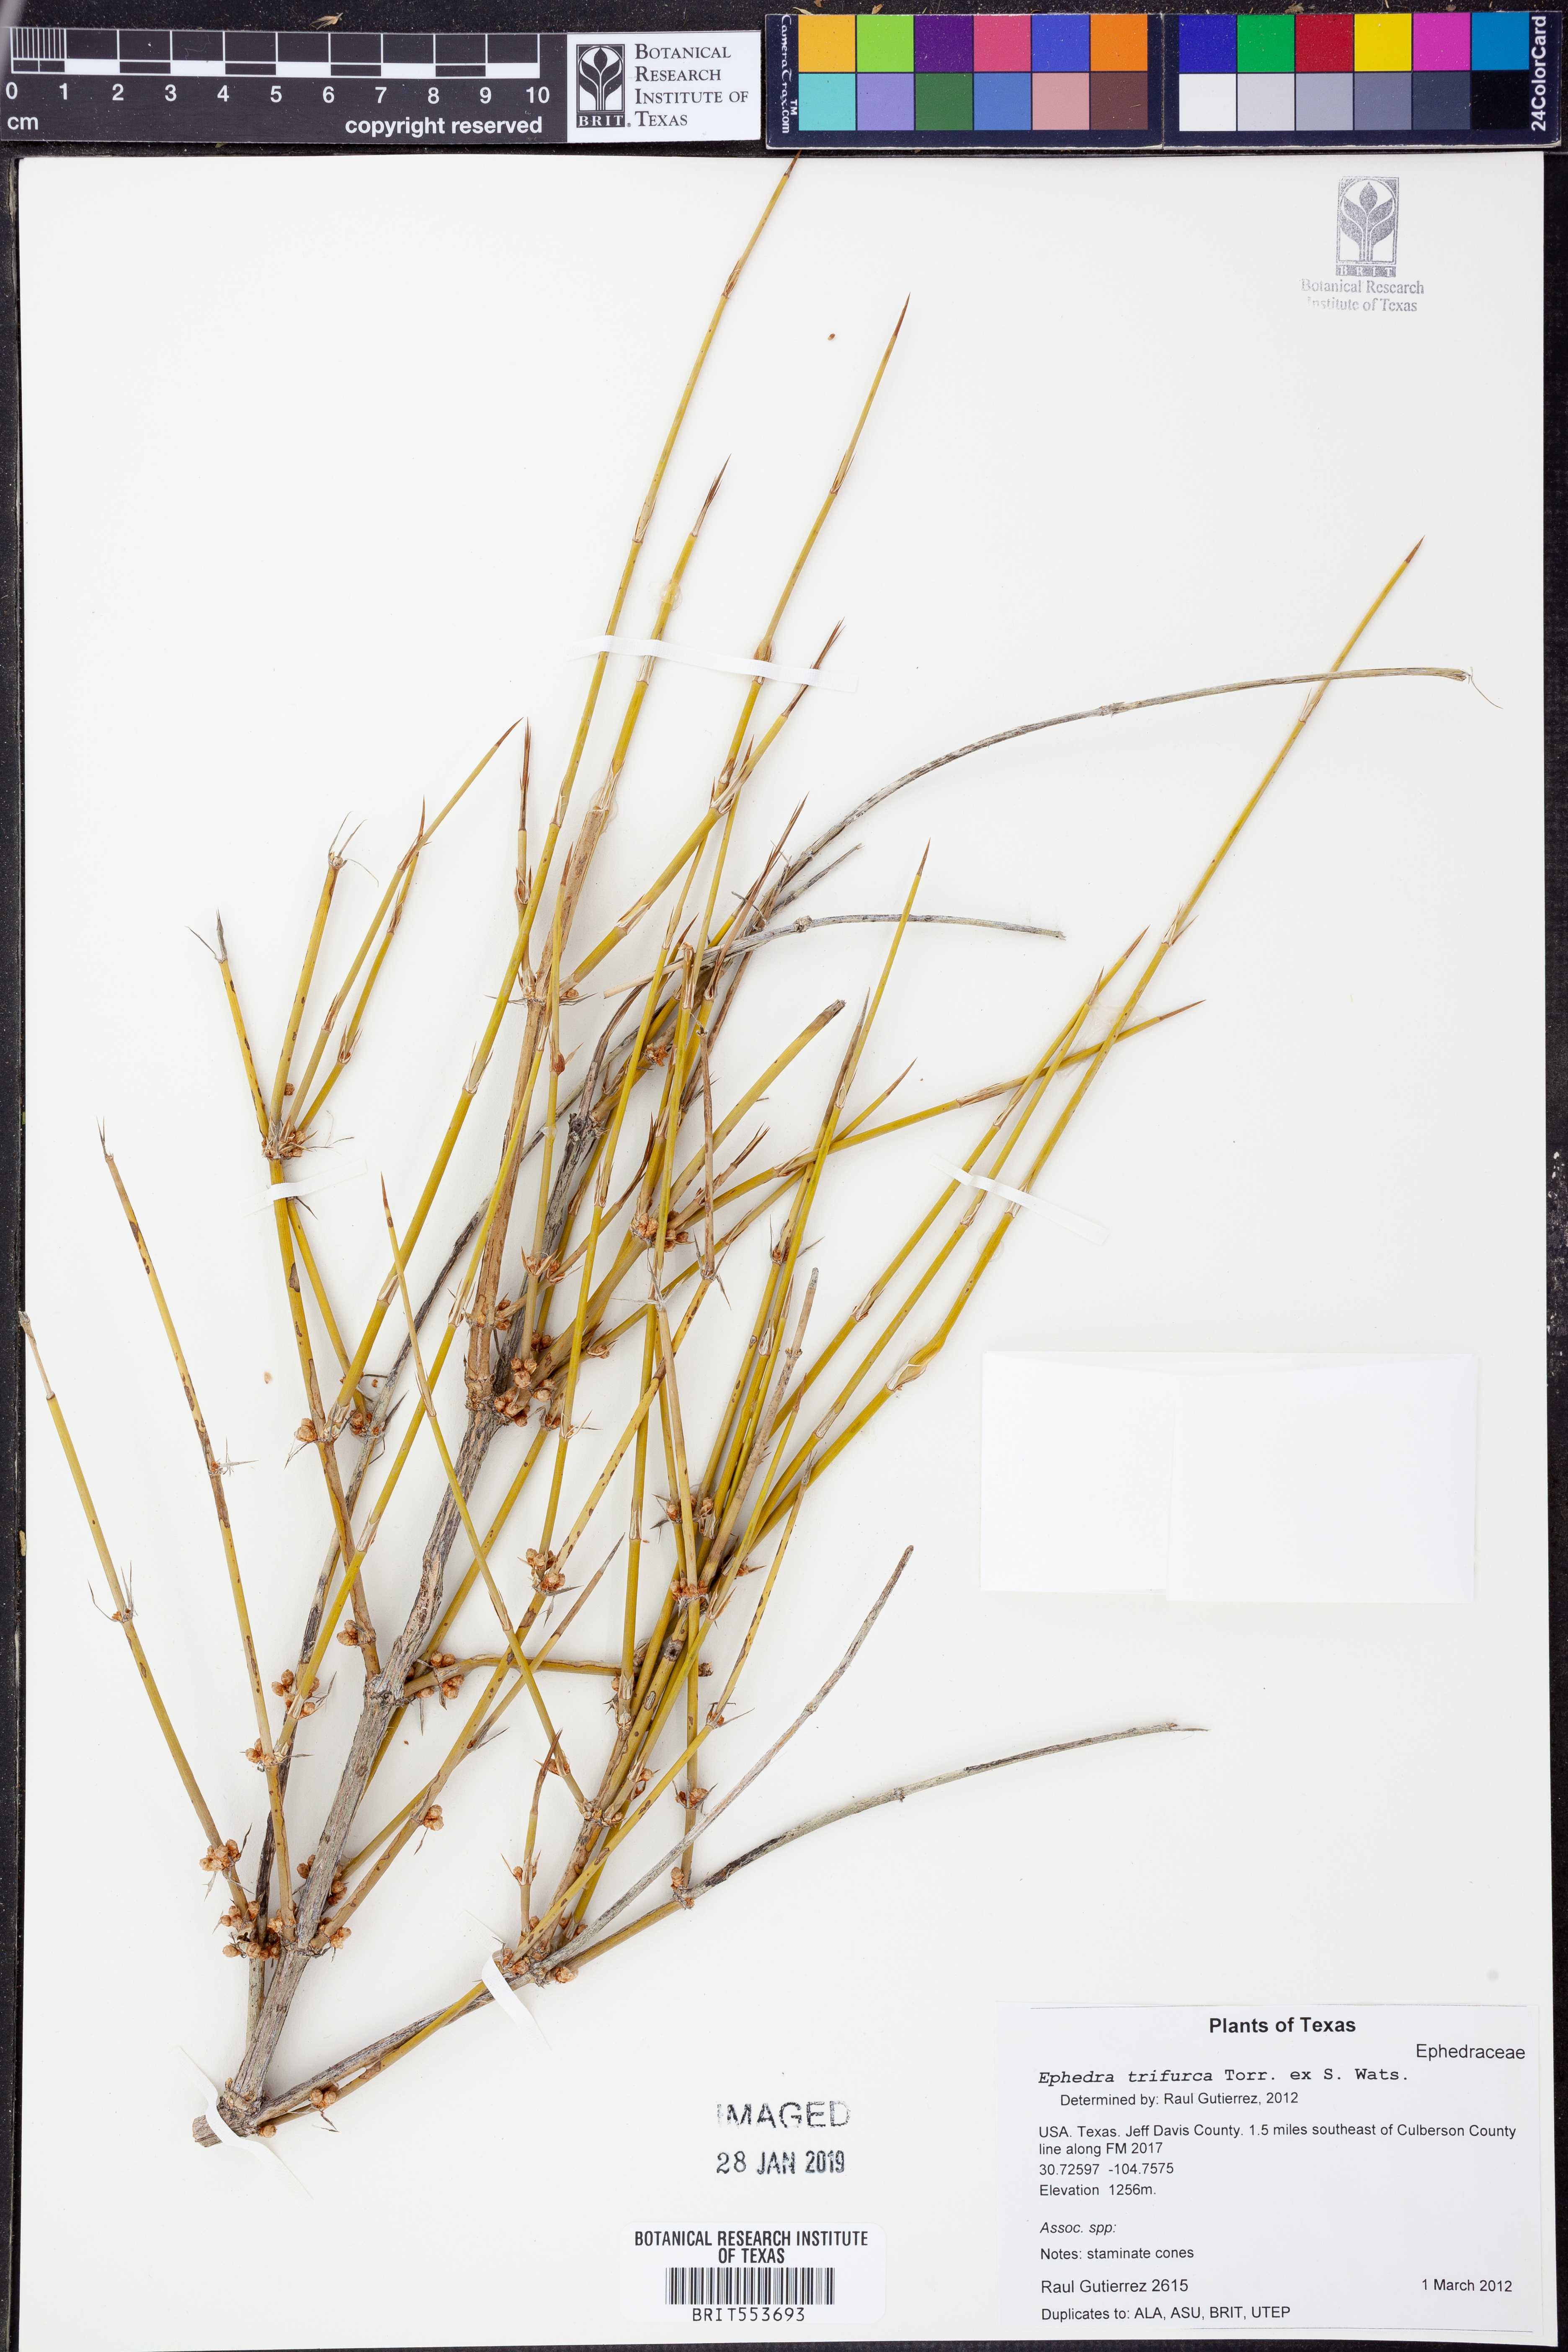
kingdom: Plantae
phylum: Tracheophyta
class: Gnetopsida
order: Ephedrales
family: Ephedraceae
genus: Ephedra
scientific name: Ephedra trifurca
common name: Mexican-tea
